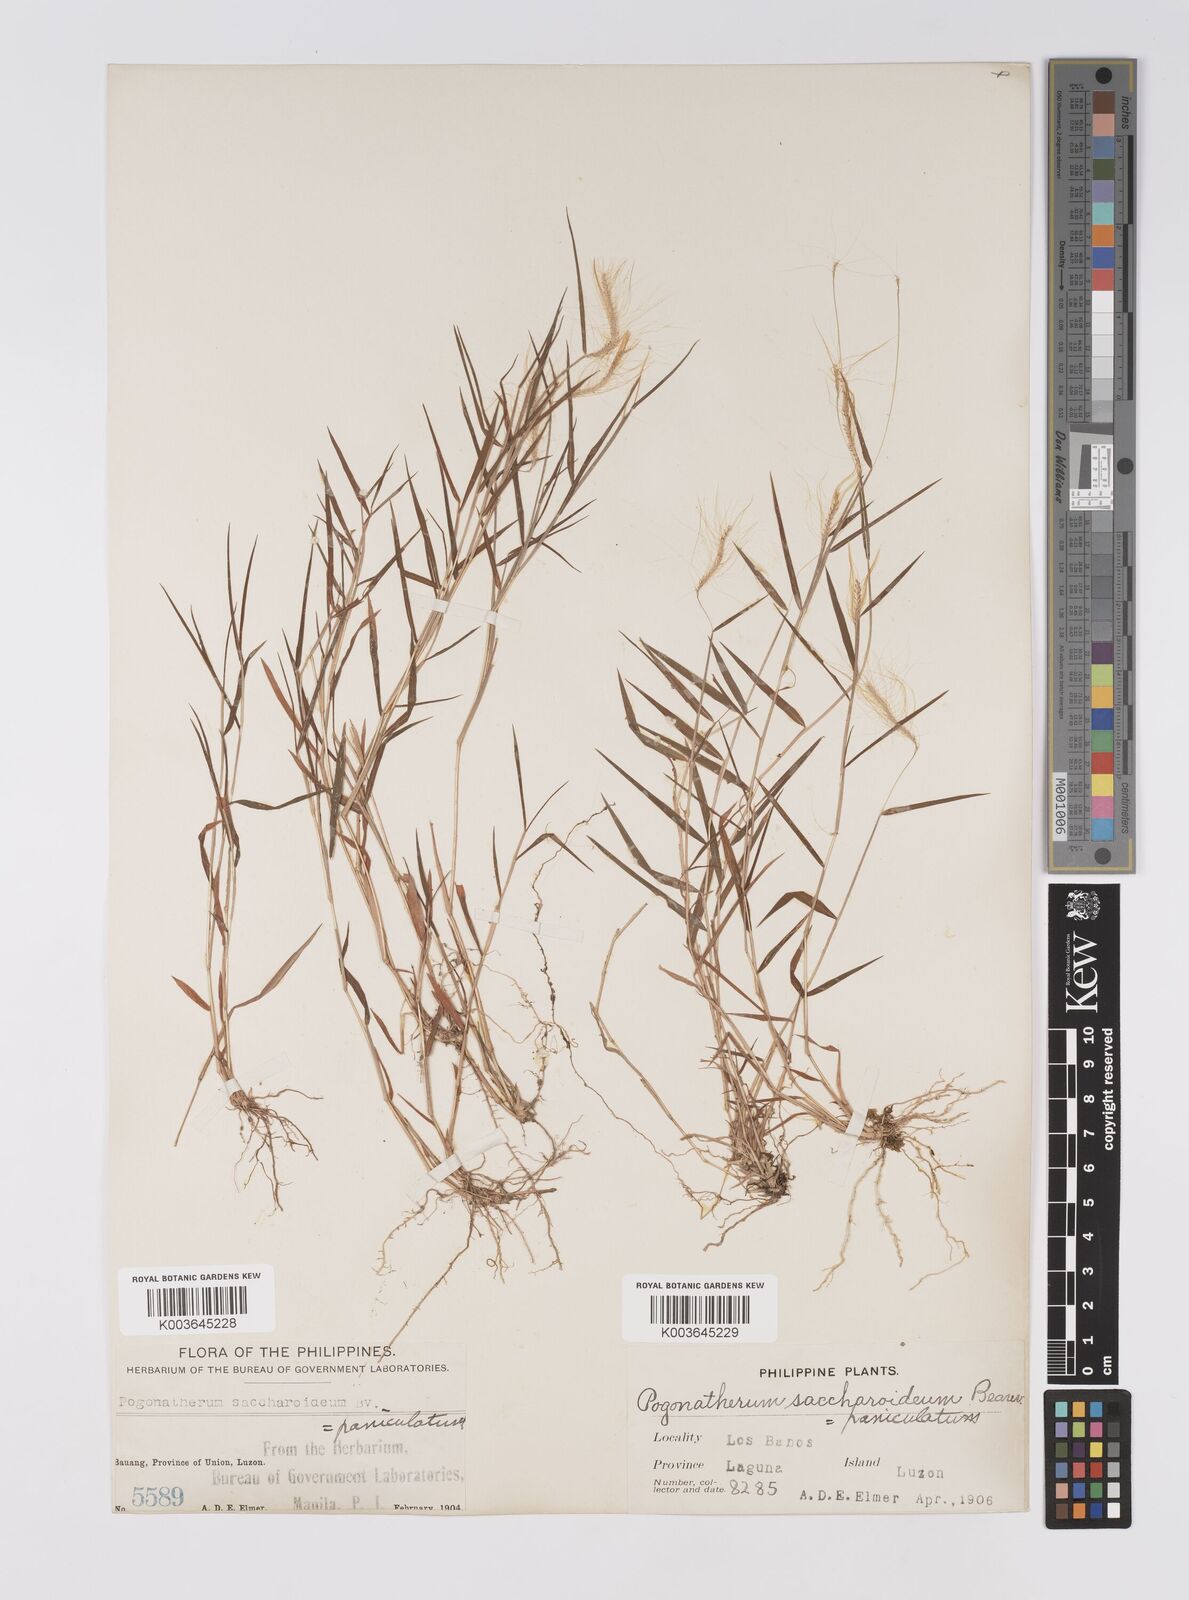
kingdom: Plantae
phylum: Tracheophyta
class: Liliopsida
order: Poales
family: Poaceae
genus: Pogonatherum
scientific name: Pogonatherum crinitum
